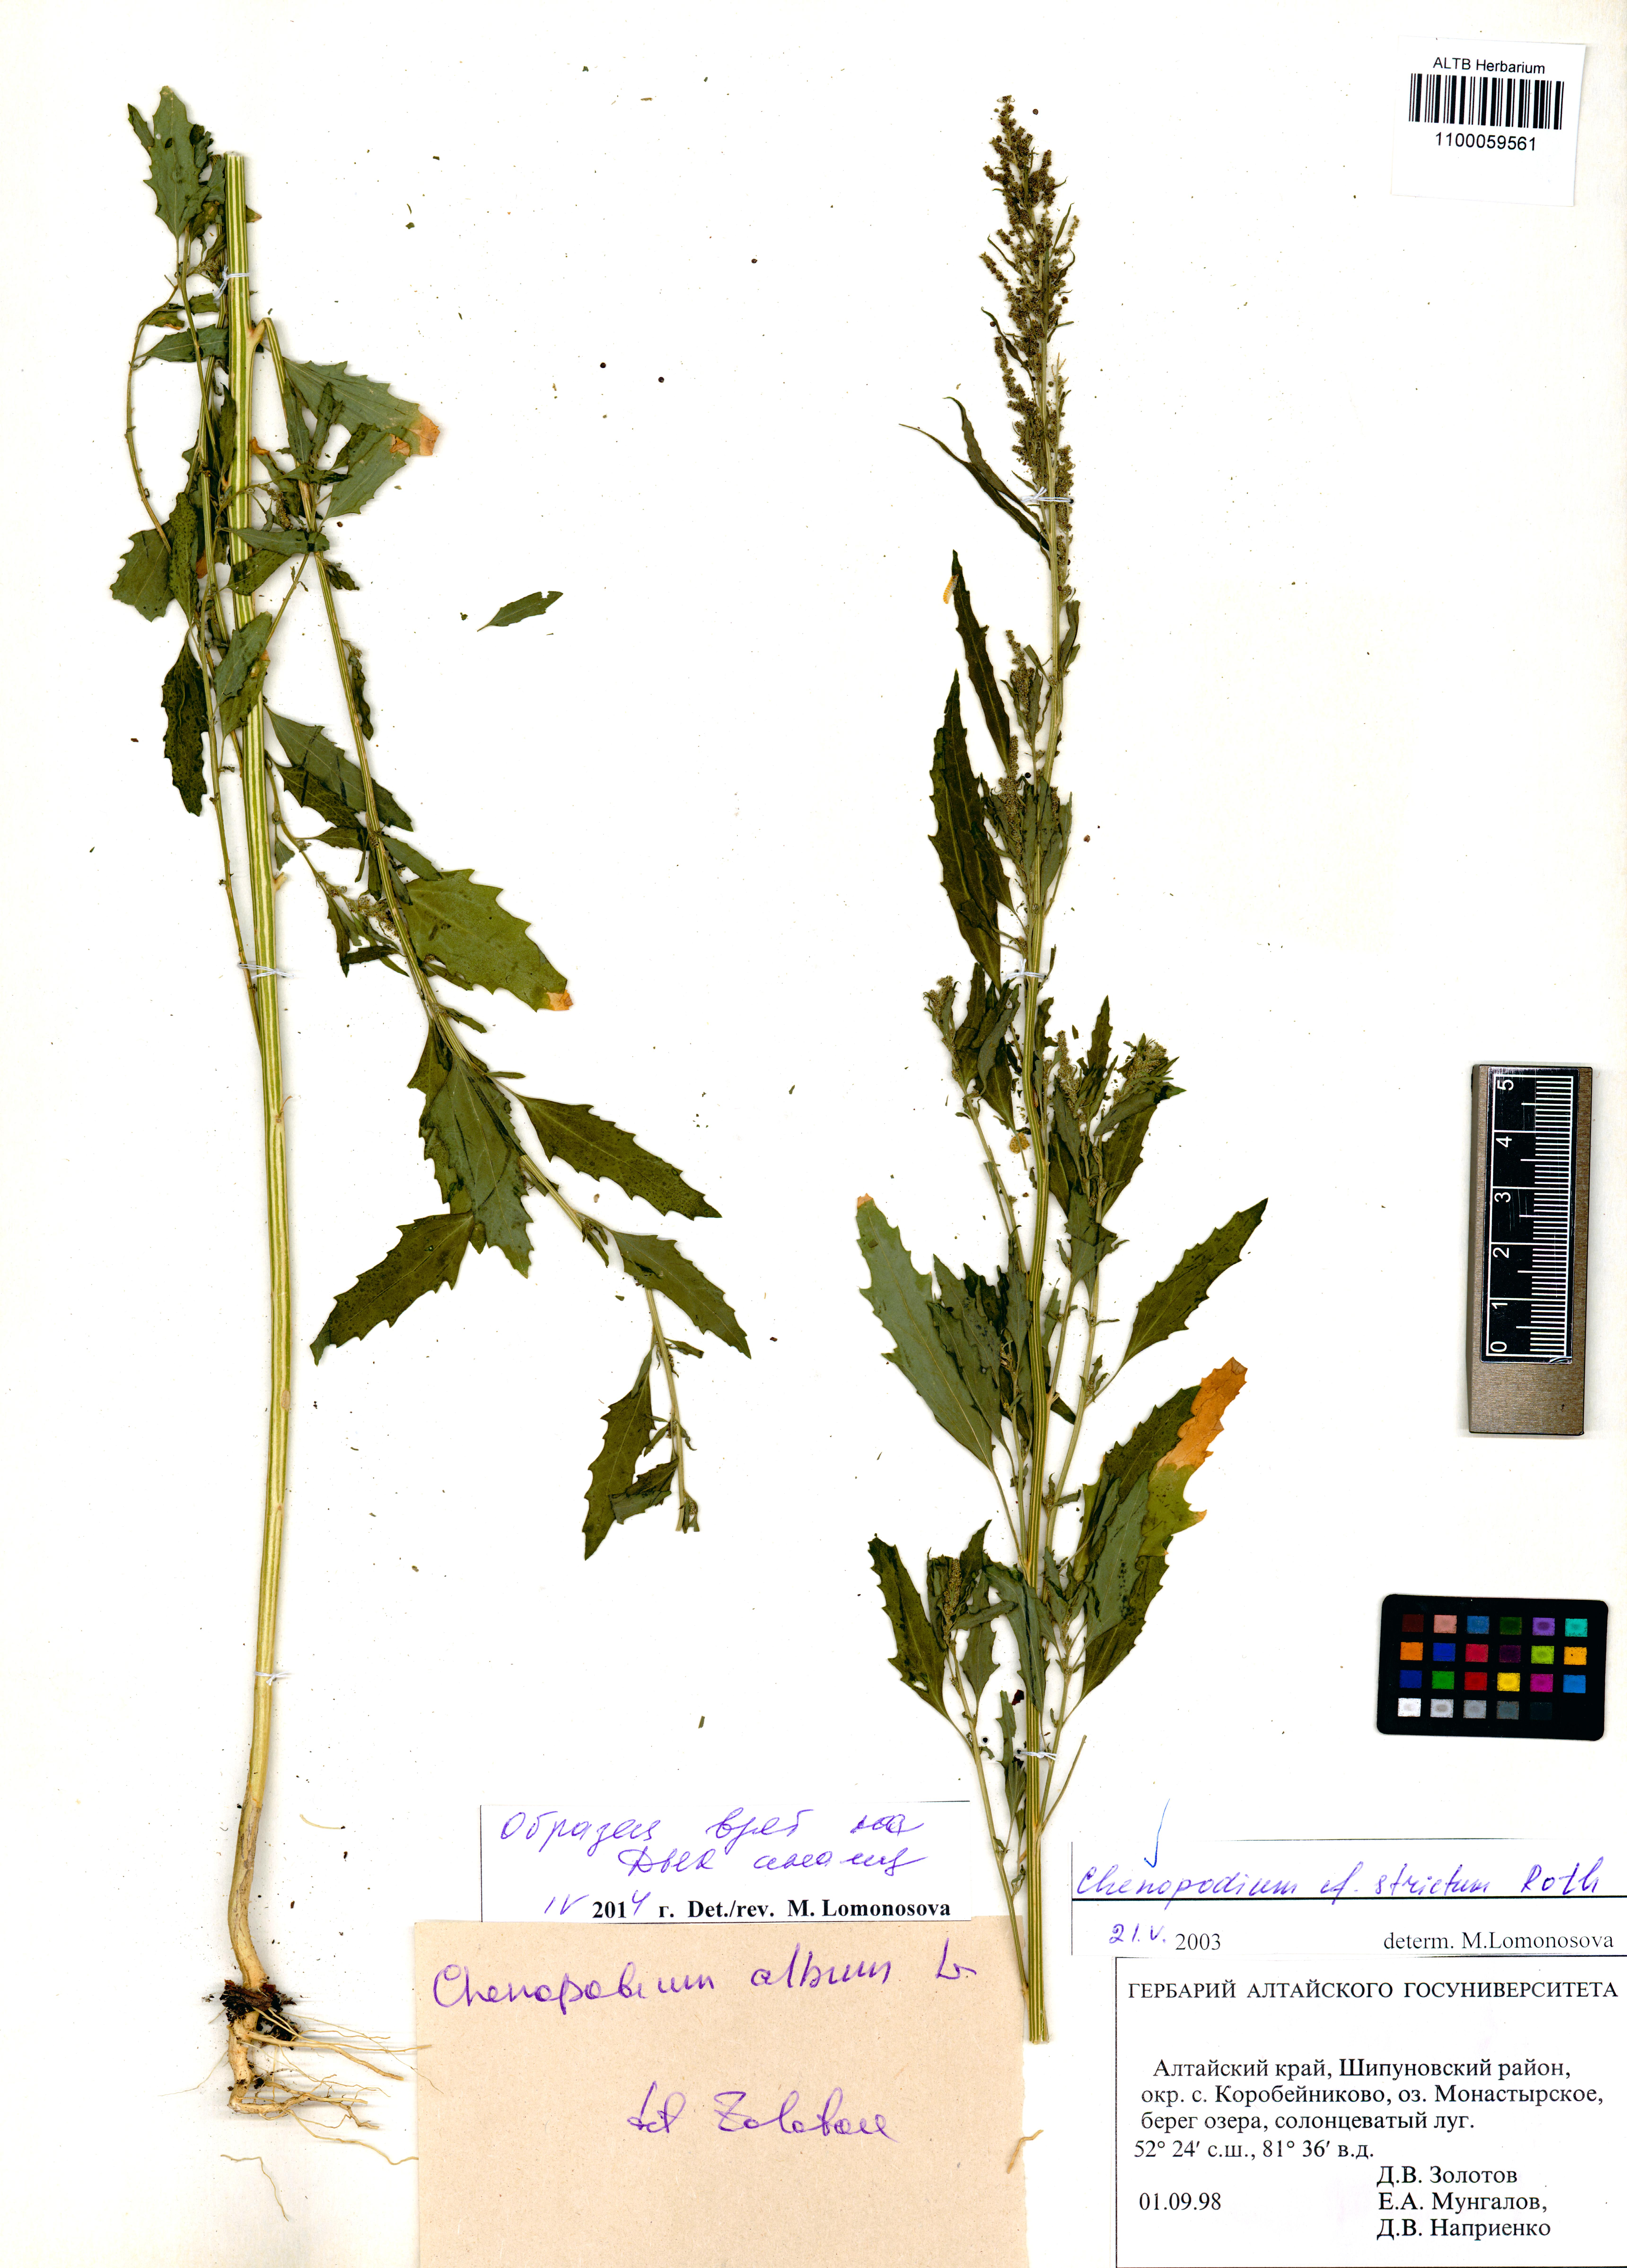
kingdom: Plantae
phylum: Tracheophyta
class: Magnoliopsida
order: Caryophyllales
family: Amaranthaceae
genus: Chenopodium
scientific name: Chenopodium album
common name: Fat-hen
